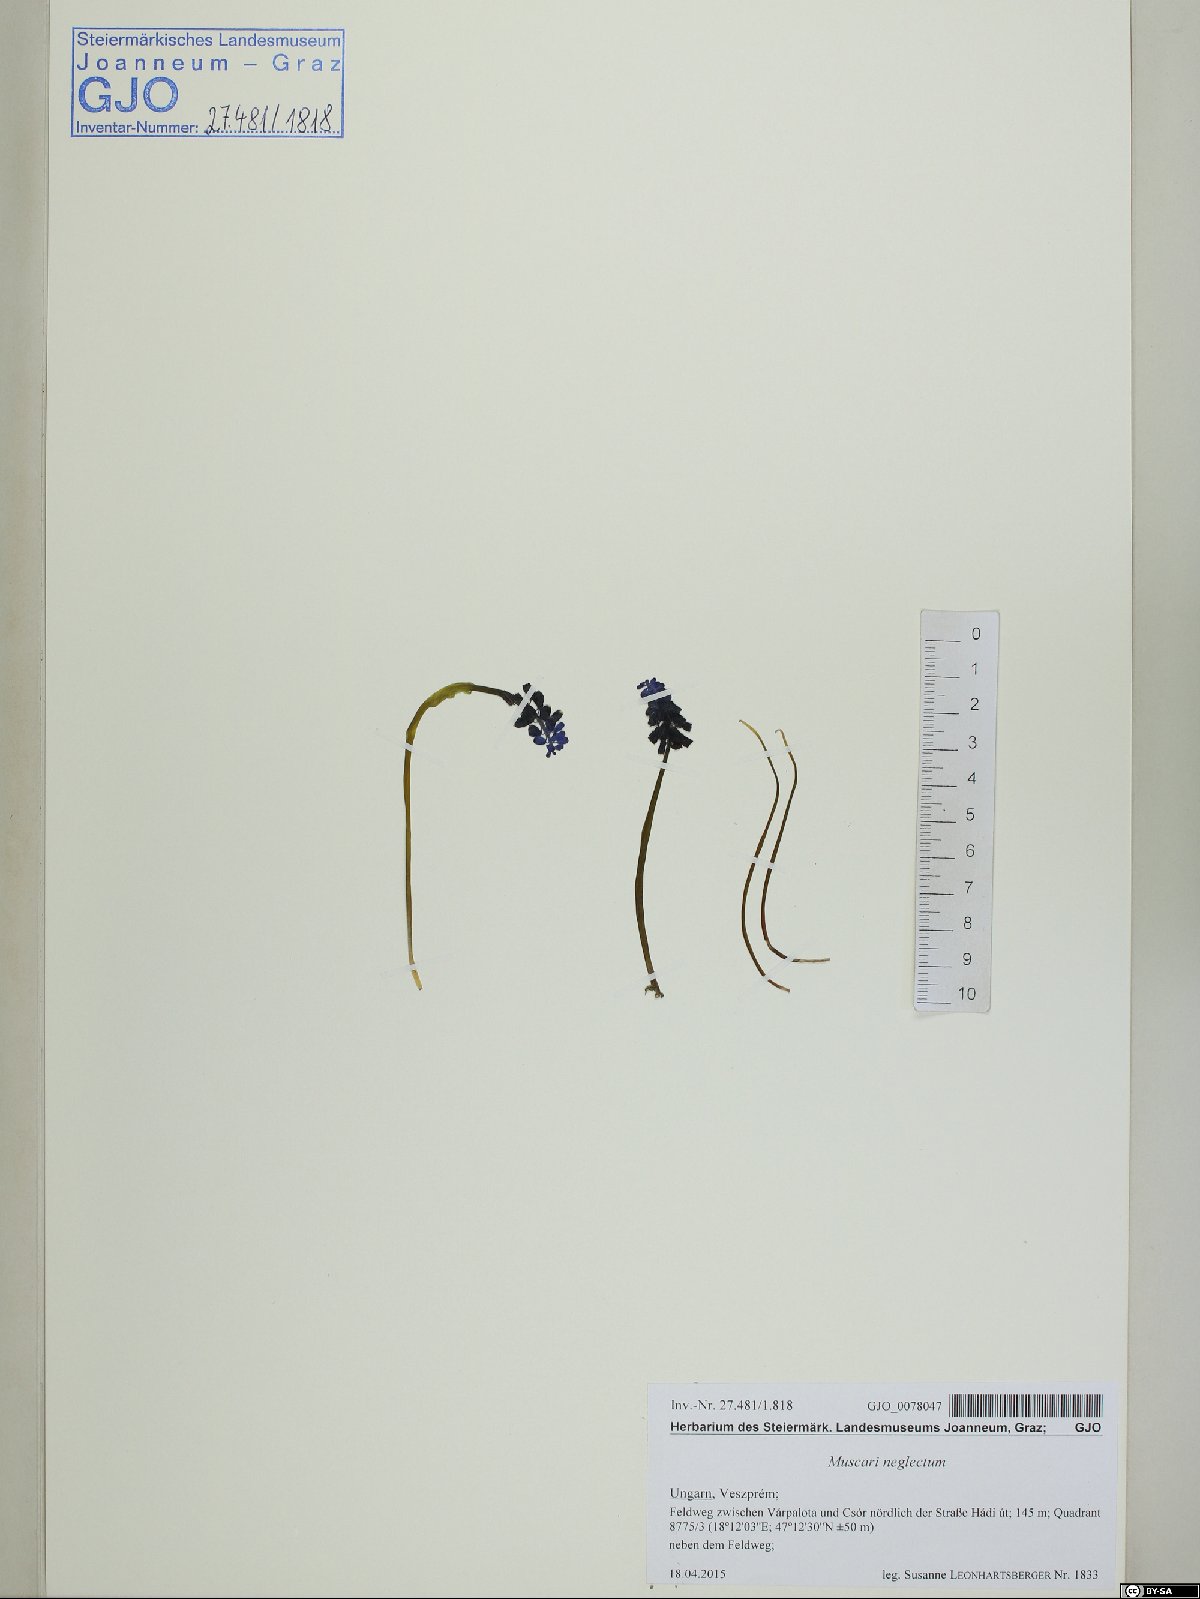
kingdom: Plantae
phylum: Tracheophyta
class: Liliopsida
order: Asparagales
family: Asparagaceae
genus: Muscari
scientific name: Muscari neglectum
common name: Grape-hyacinth
